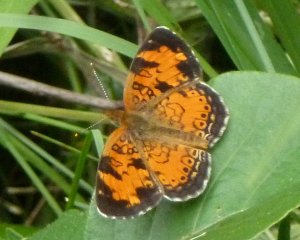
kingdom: Animalia
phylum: Arthropoda
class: Insecta
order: Lepidoptera
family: Nymphalidae
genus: Phyciodes
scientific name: Phyciodes tharos
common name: Northern Crescent
